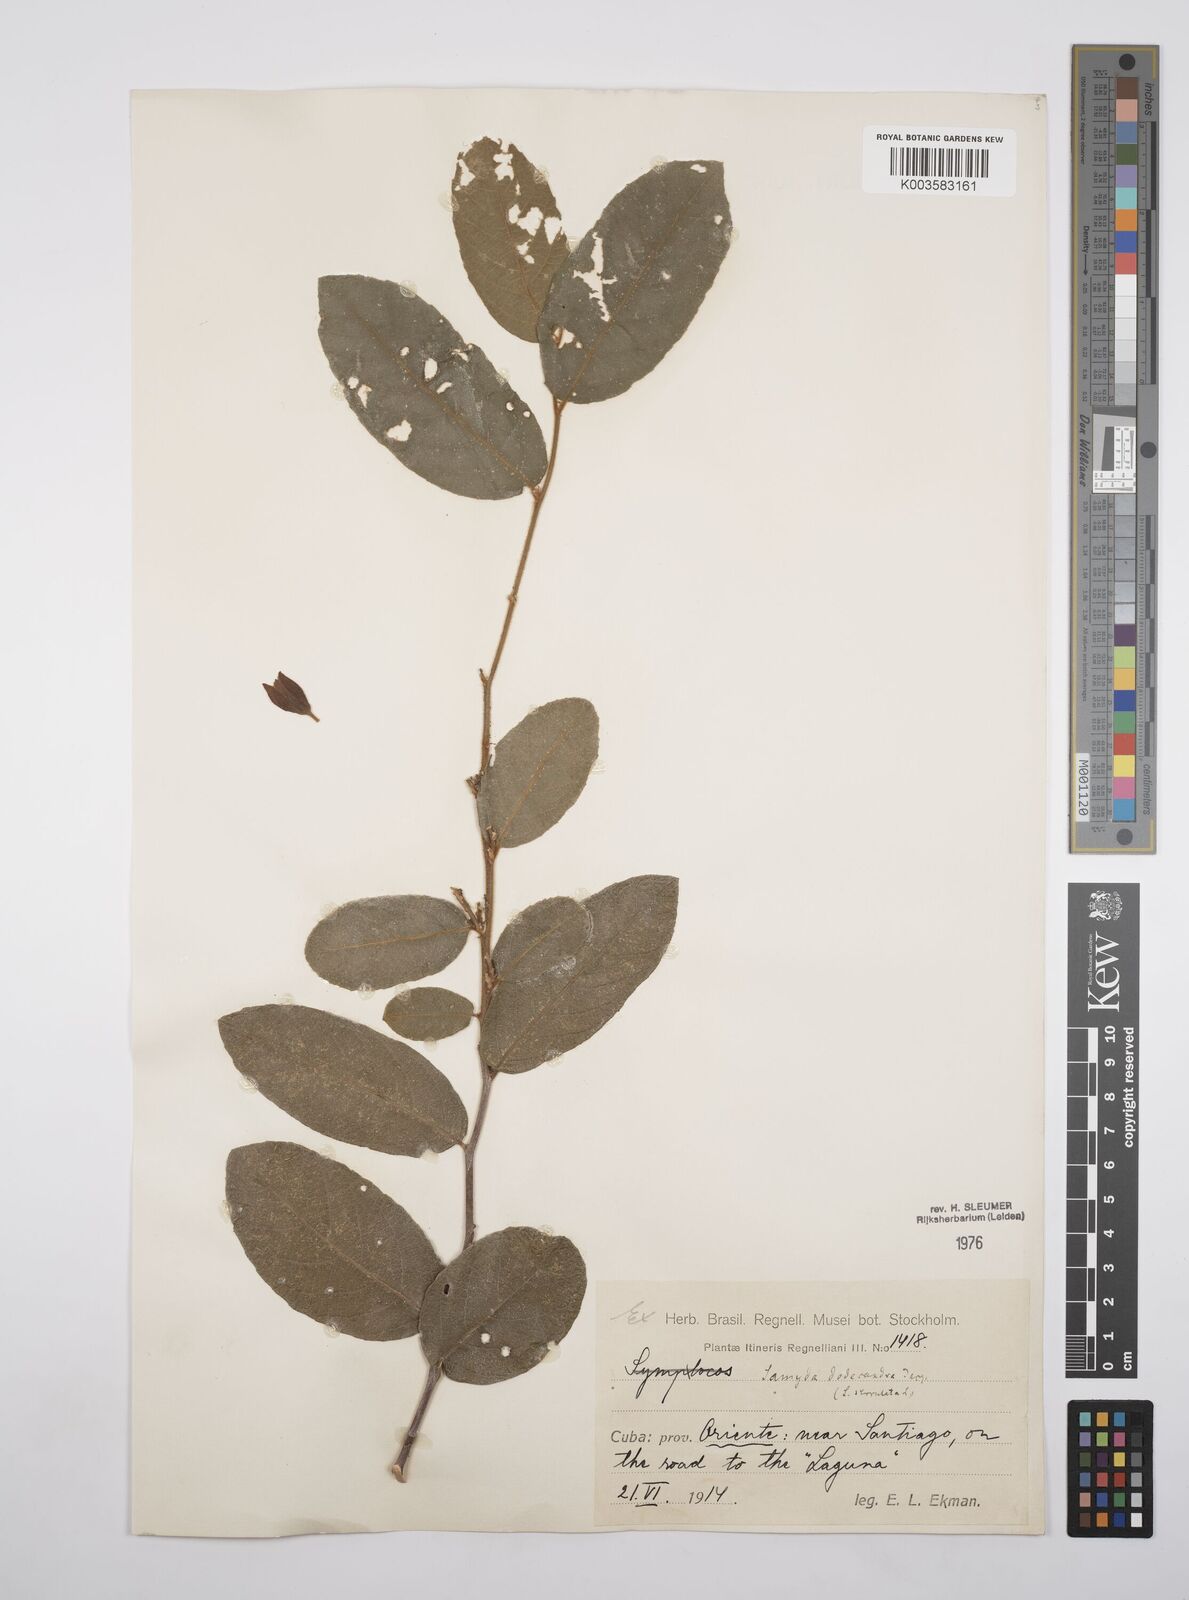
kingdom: Plantae
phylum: Tracheophyta
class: Magnoliopsida
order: Malpighiales
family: Salicaceae
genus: Casearia
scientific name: Casearia dodecandra
